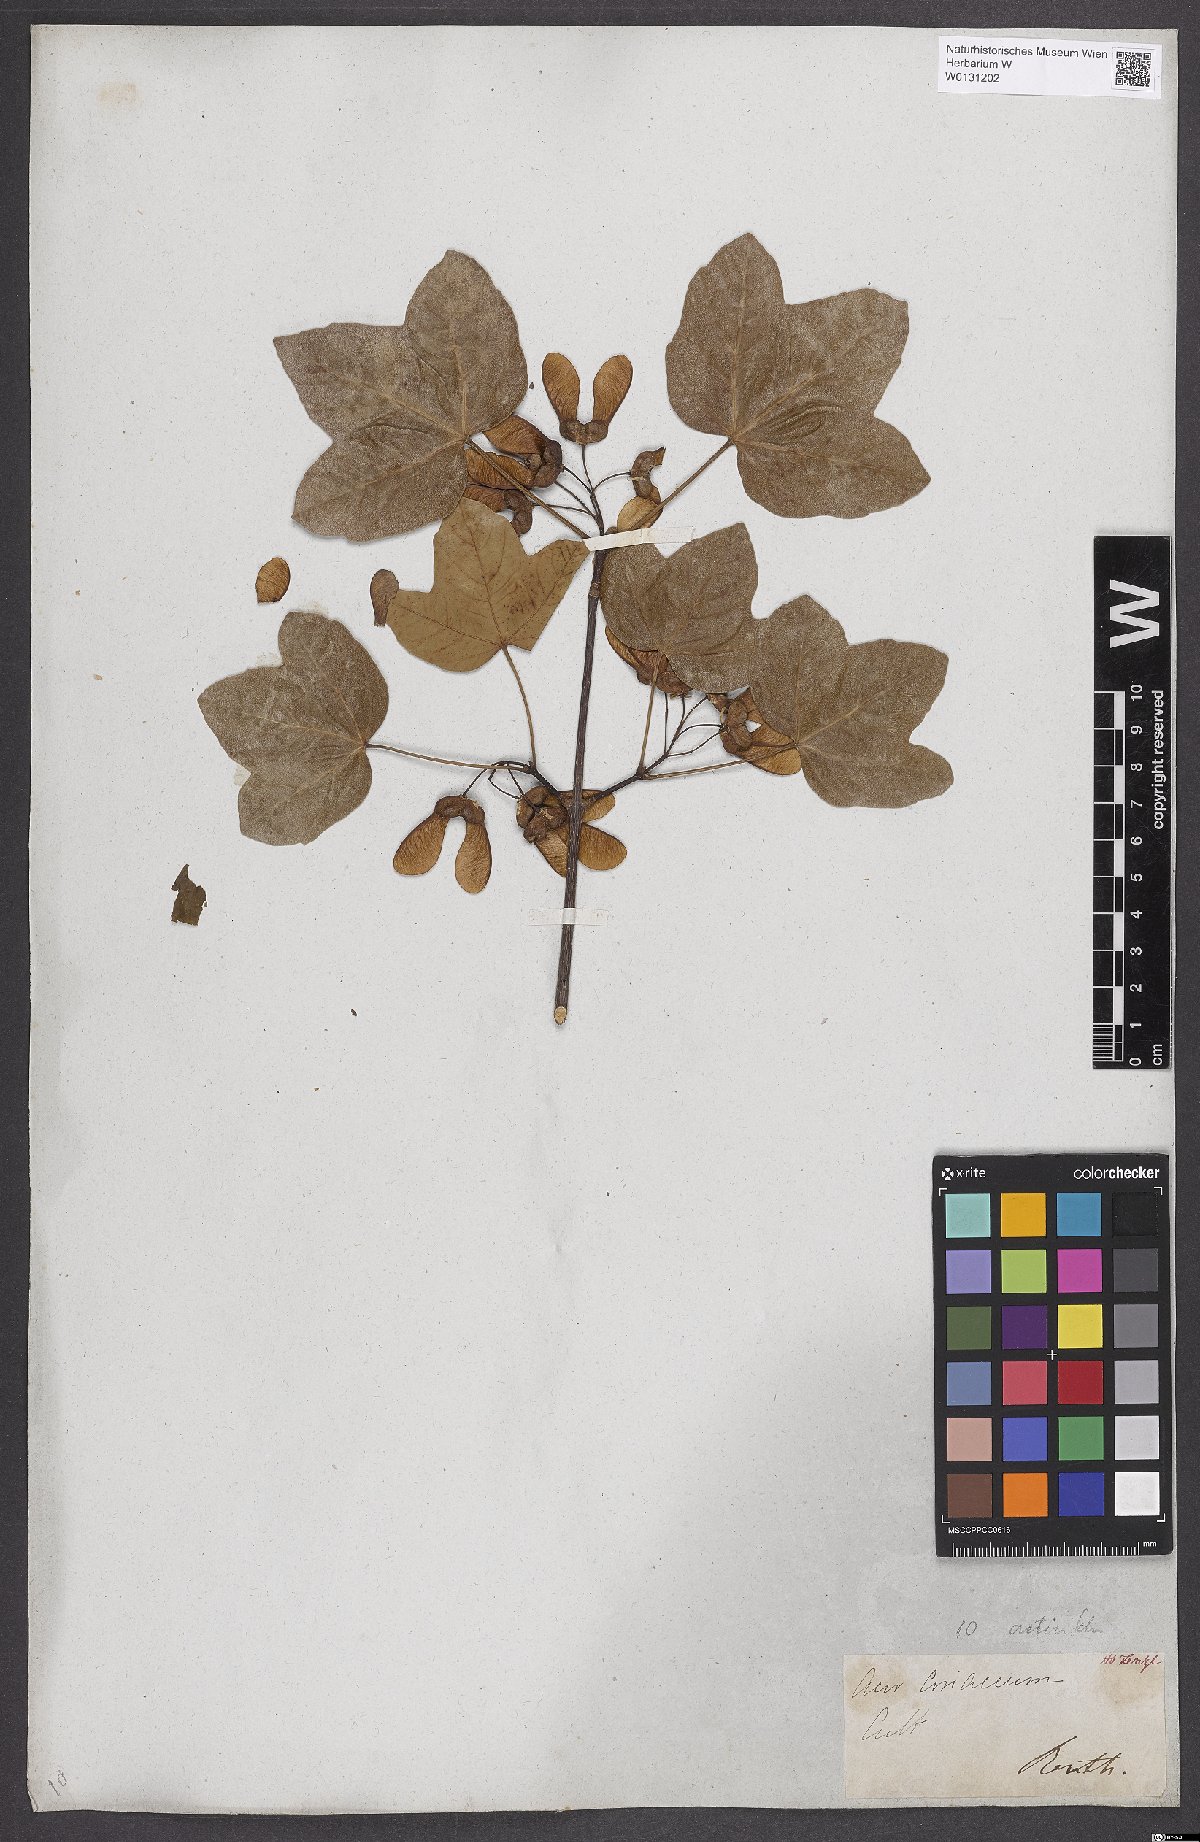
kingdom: Plantae
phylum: Tracheophyta
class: Magnoliopsida
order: Sapindales
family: Aceraceae
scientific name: Aceraceae
